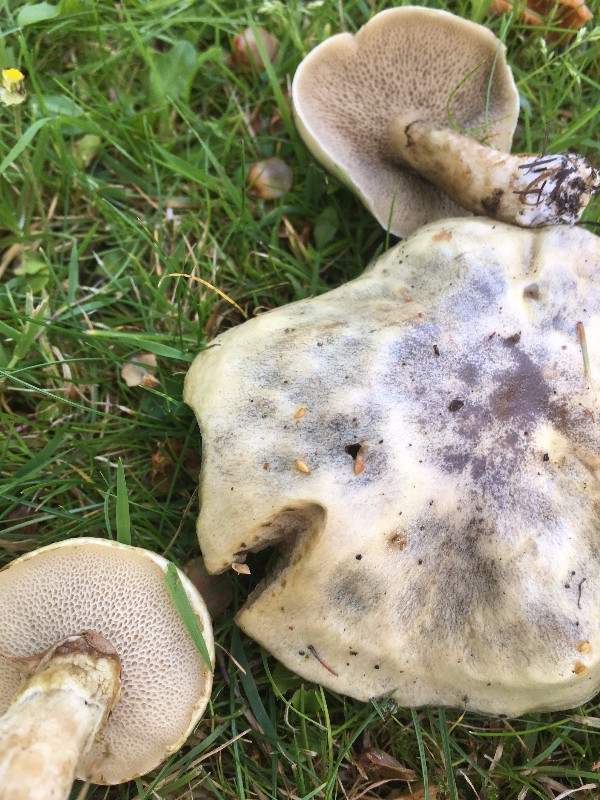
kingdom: Fungi
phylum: Basidiomycota
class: Agaricomycetes
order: Boletales
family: Suillaceae
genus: Suillus
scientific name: Suillus viscidus
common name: olivengrå slimrørhat
